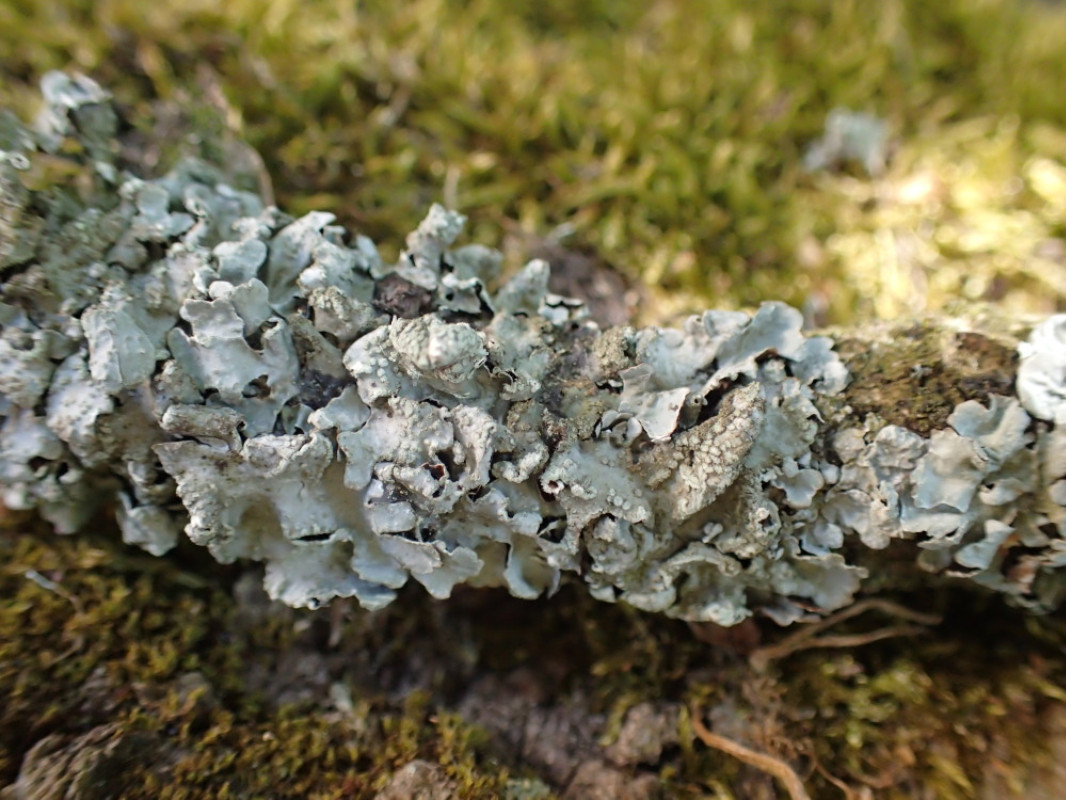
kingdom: Fungi
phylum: Ascomycota
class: Lecanoromycetes
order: Lecanorales
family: Parmeliaceae
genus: Parmelia
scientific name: Parmelia sulcata
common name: rynket skållav
